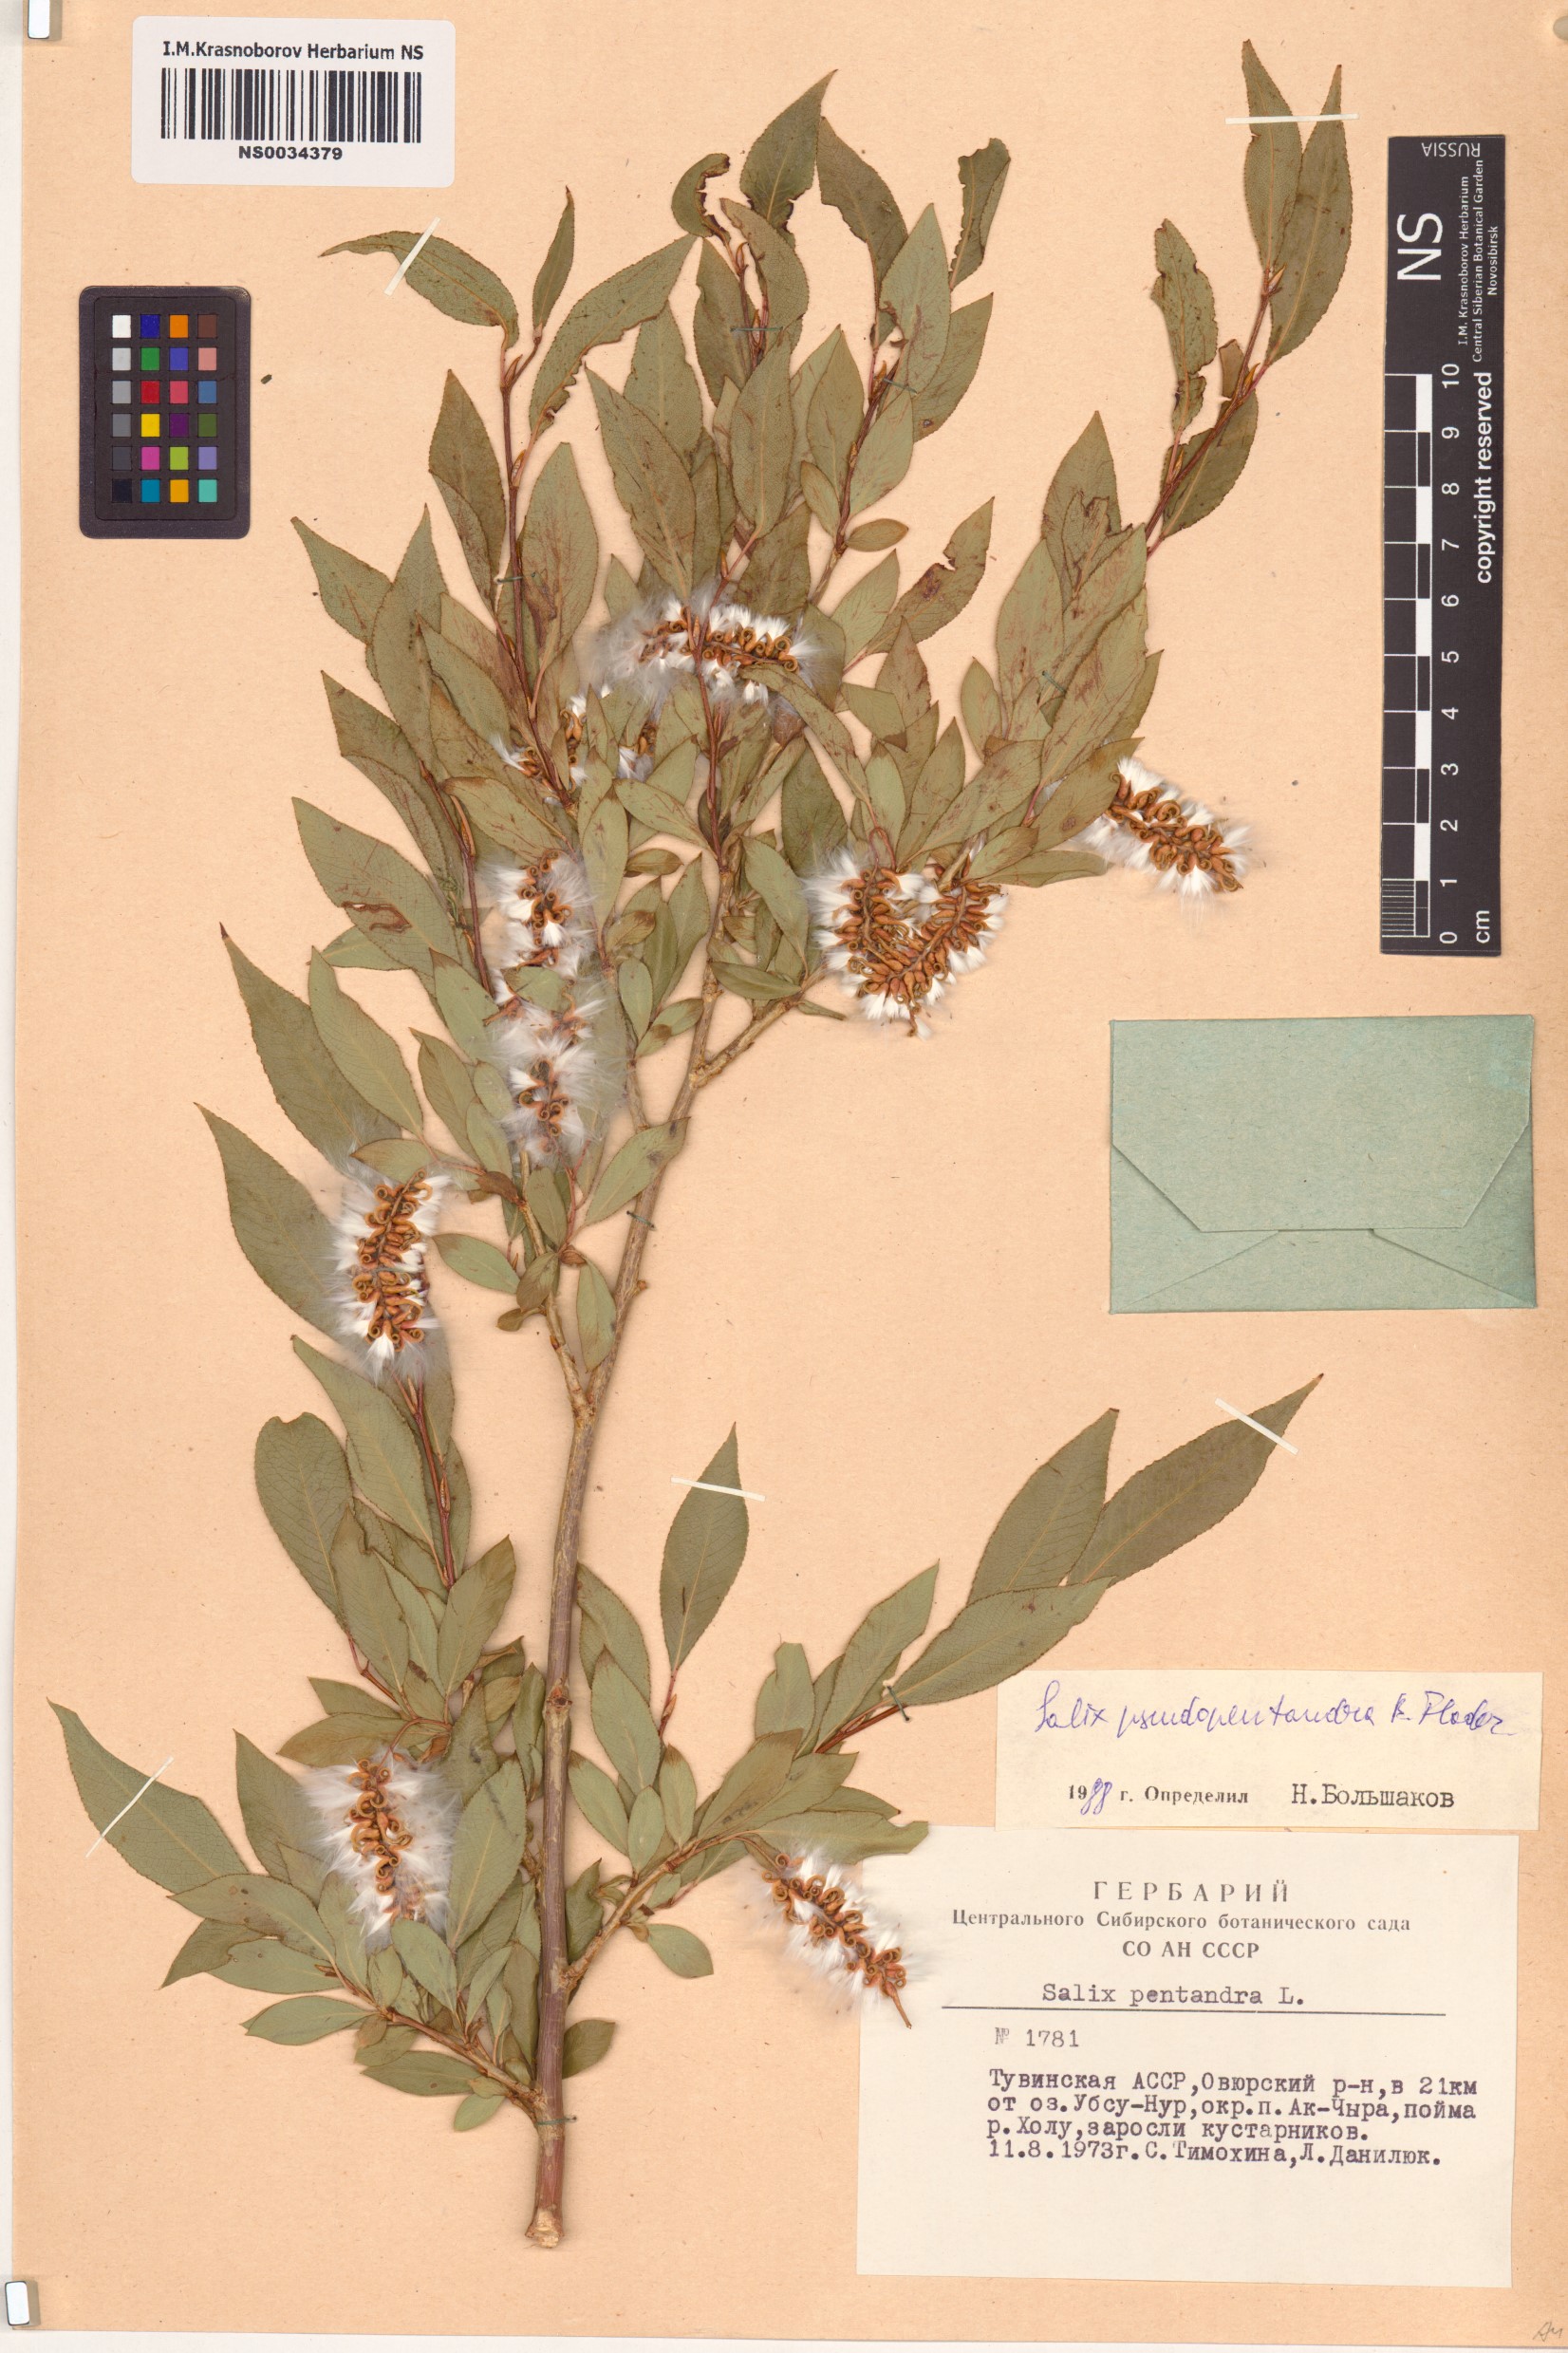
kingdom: Plantae
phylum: Tracheophyta
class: Magnoliopsida
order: Malpighiales
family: Salicaceae
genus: Salix
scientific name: Salix pseudopentandra
